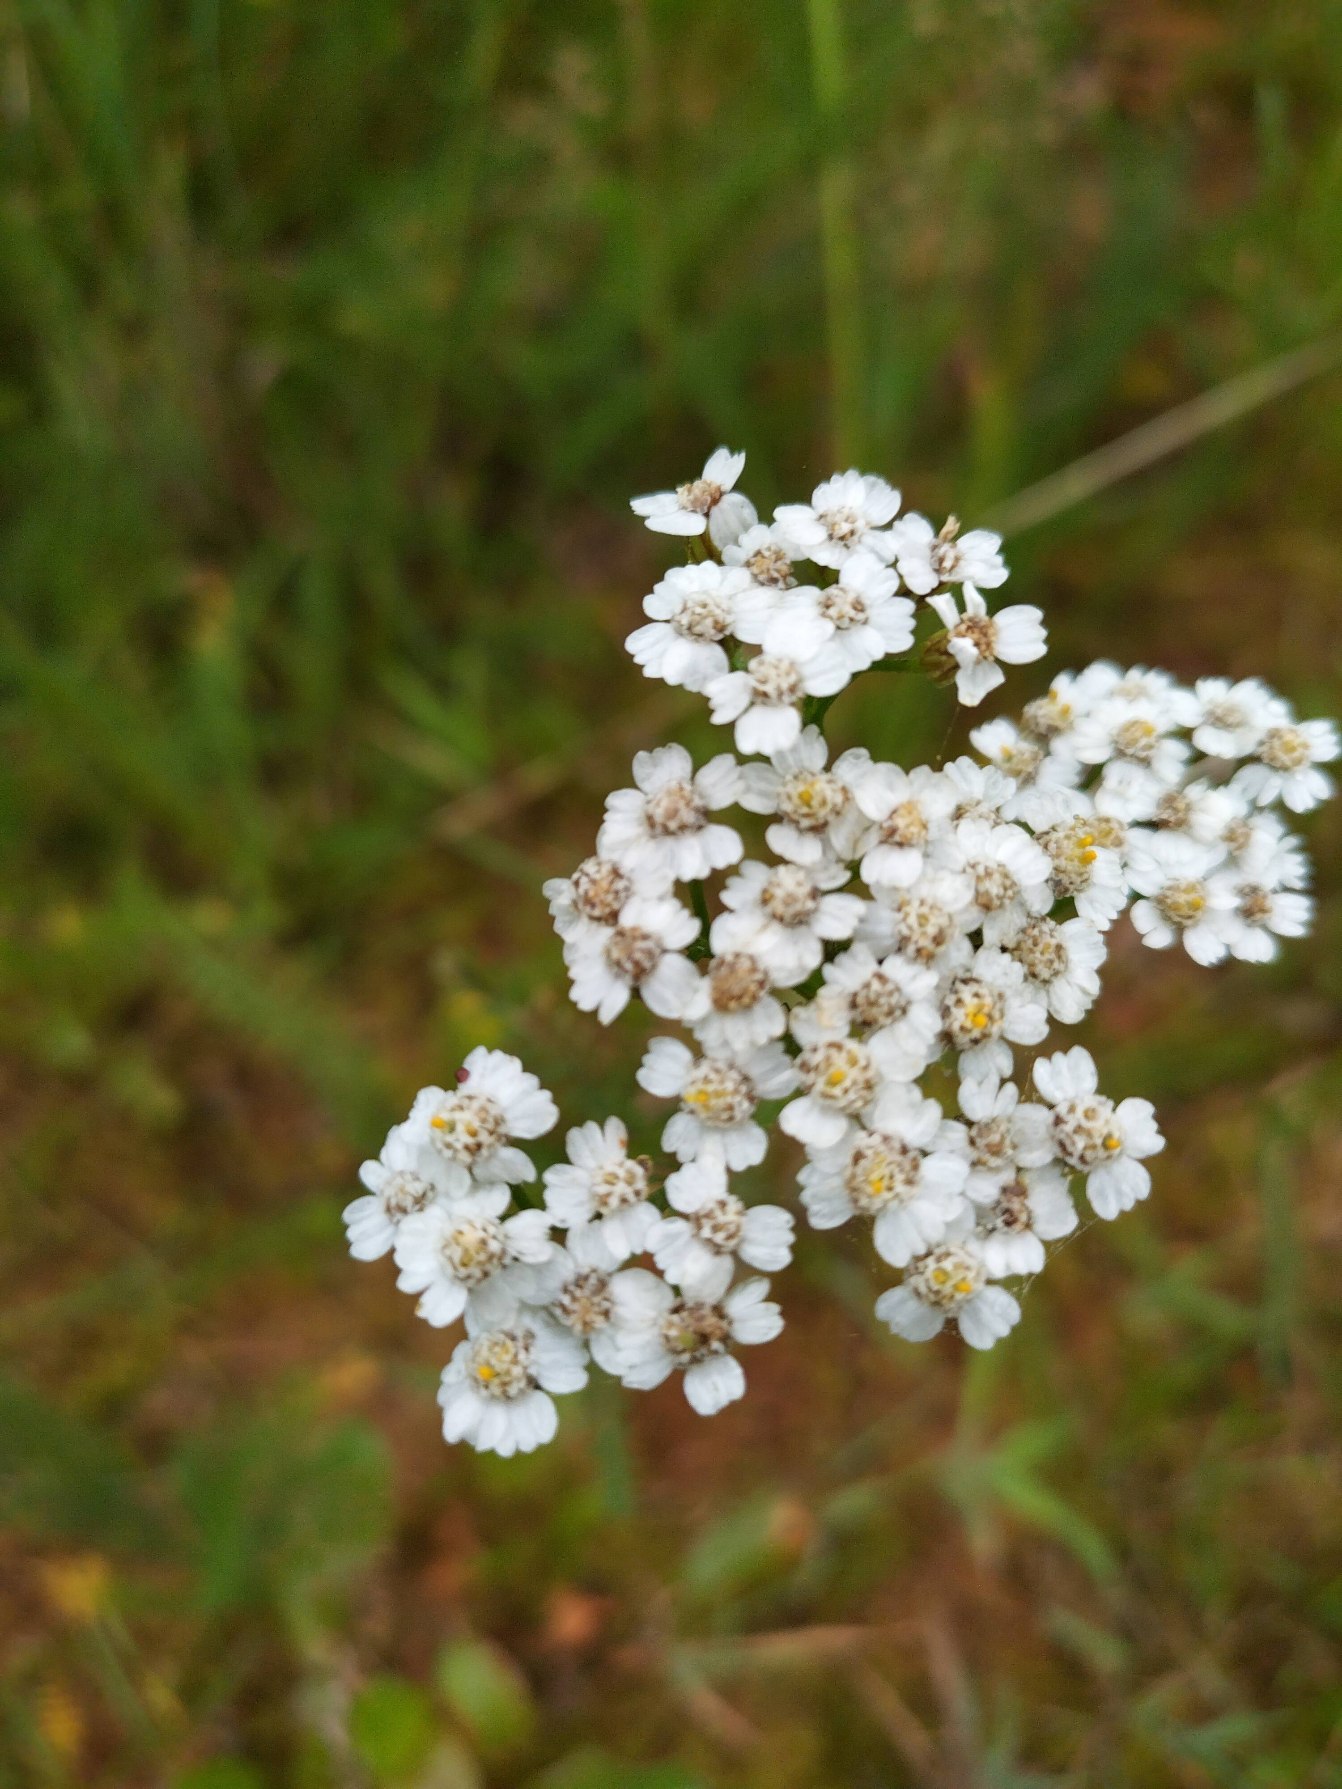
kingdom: Plantae
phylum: Tracheophyta
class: Magnoliopsida
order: Asterales
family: Asteraceae
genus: Achillea
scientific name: Achillea millefolium
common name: Almindelig røllike
